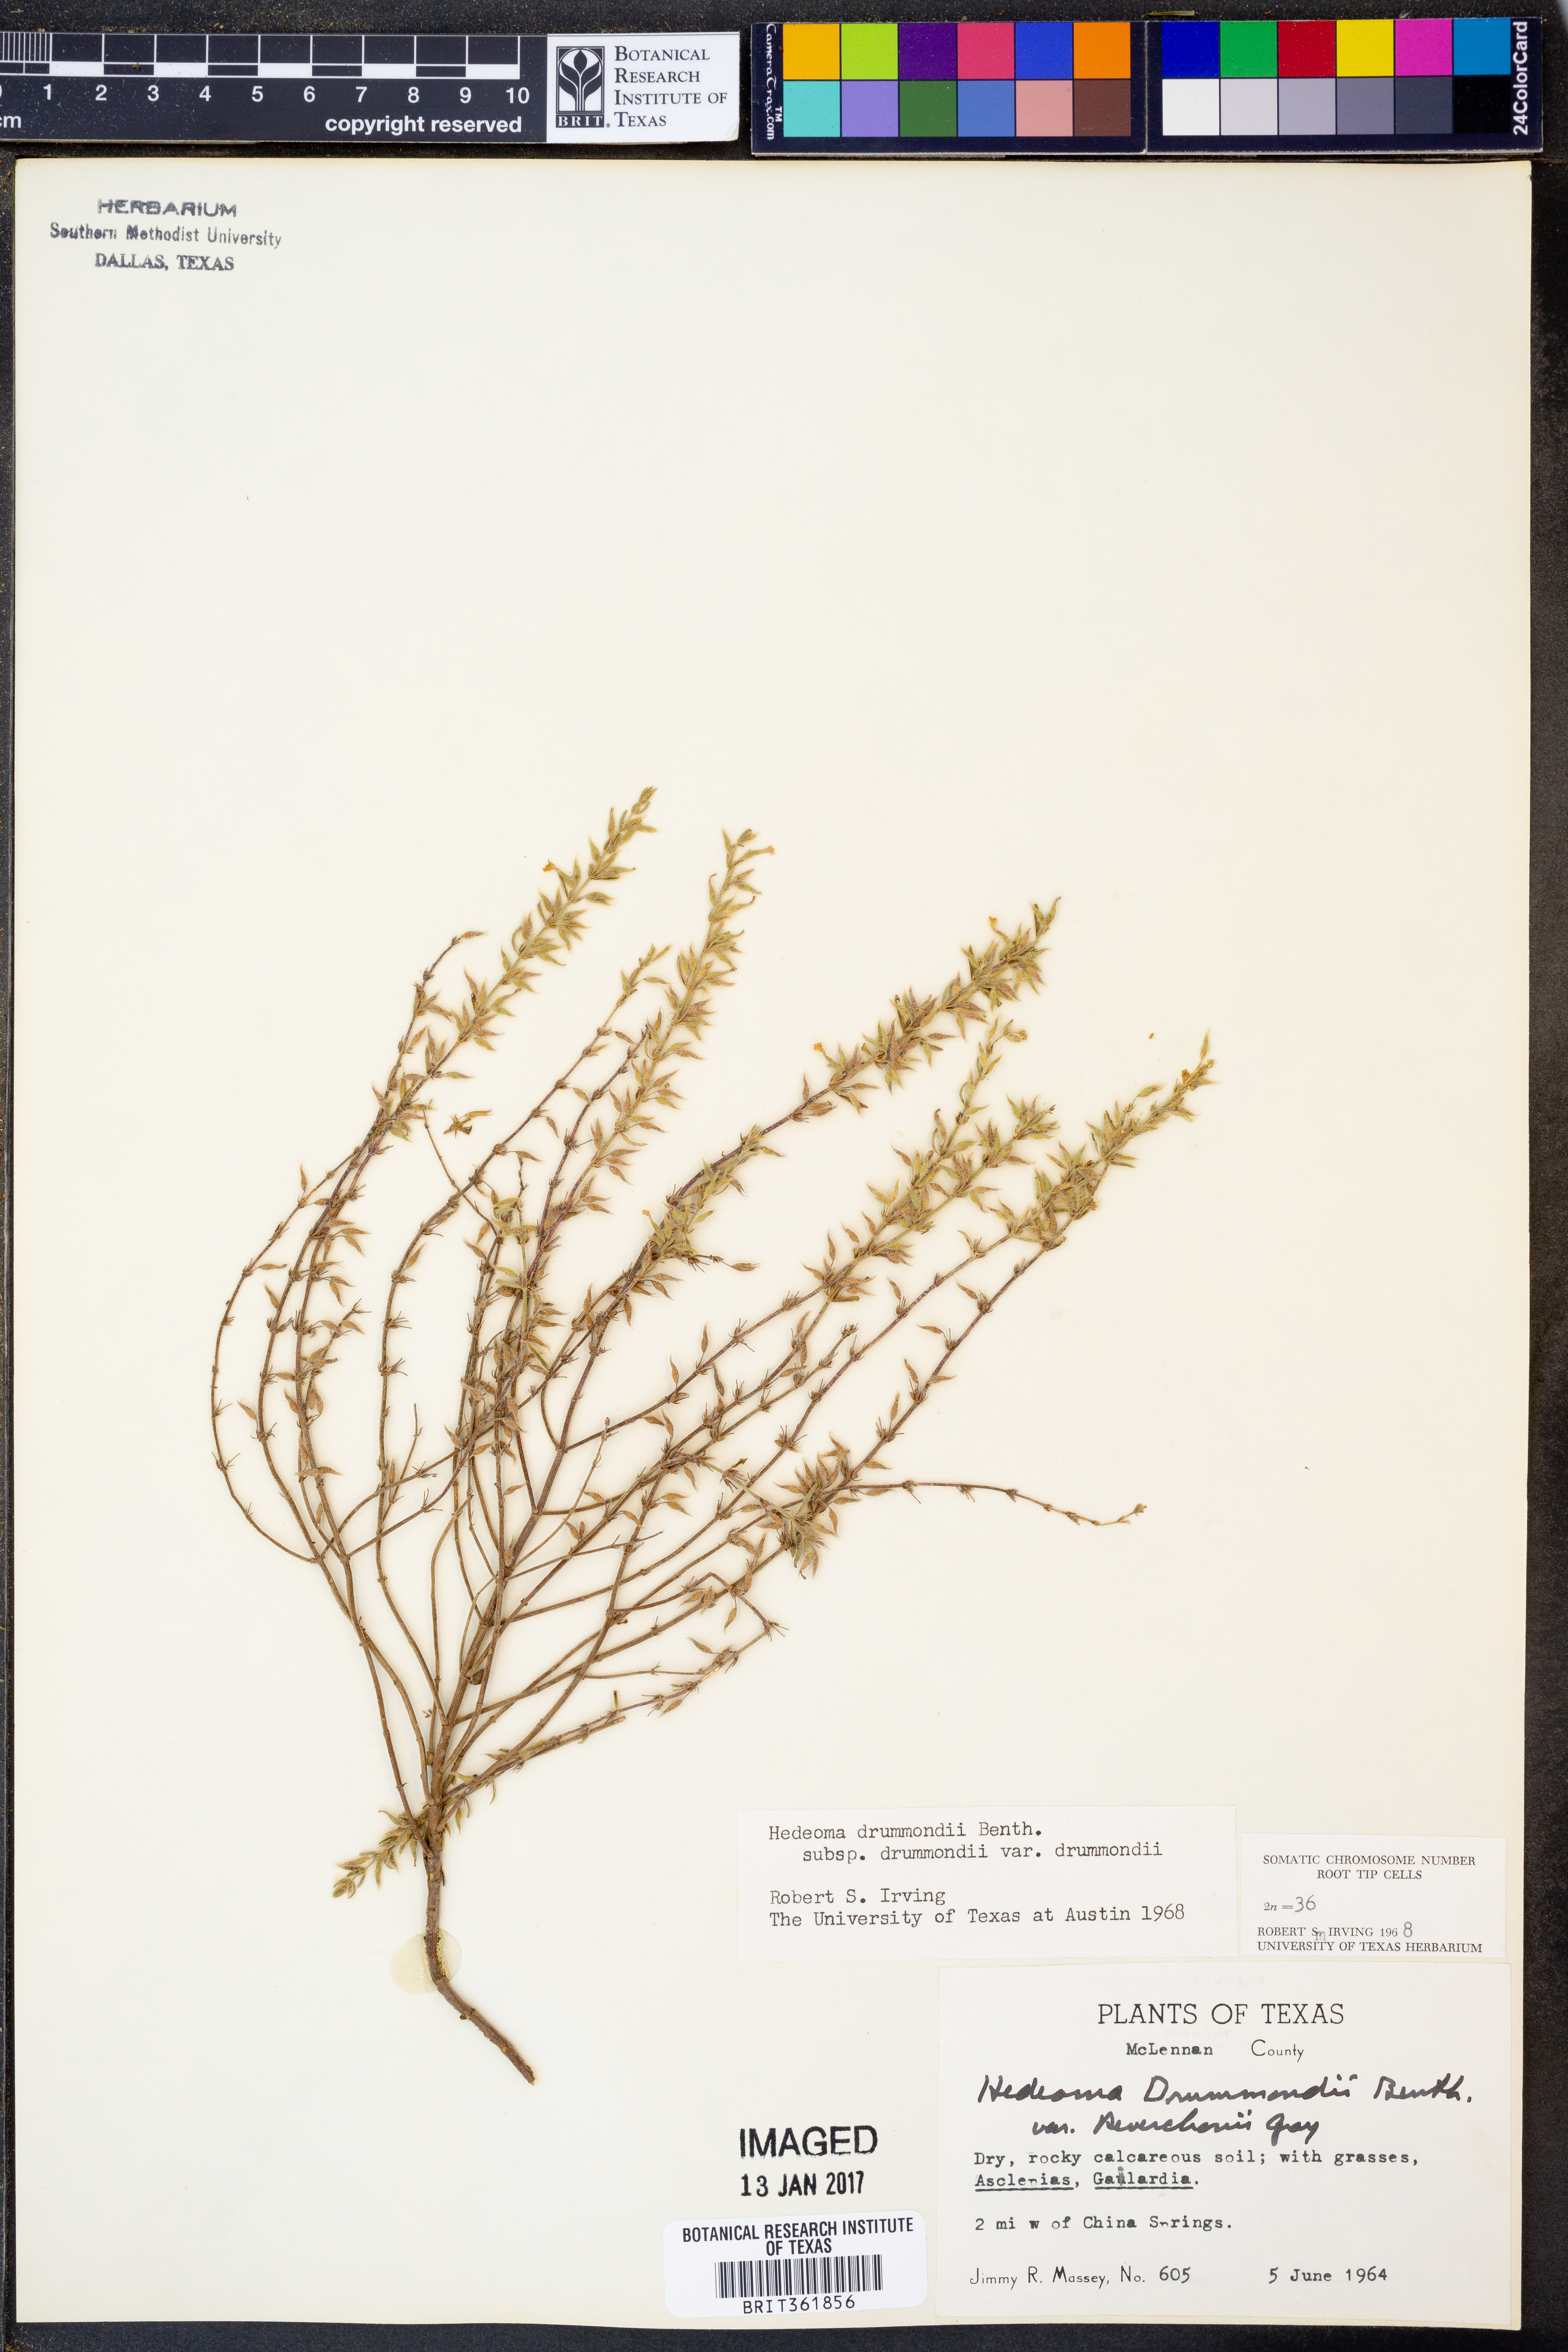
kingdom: Plantae
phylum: Tracheophyta
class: Magnoliopsida
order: Lamiales
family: Lamiaceae
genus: Hedeoma
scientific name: Hedeoma drummondii
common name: New mexico pennyroyal
